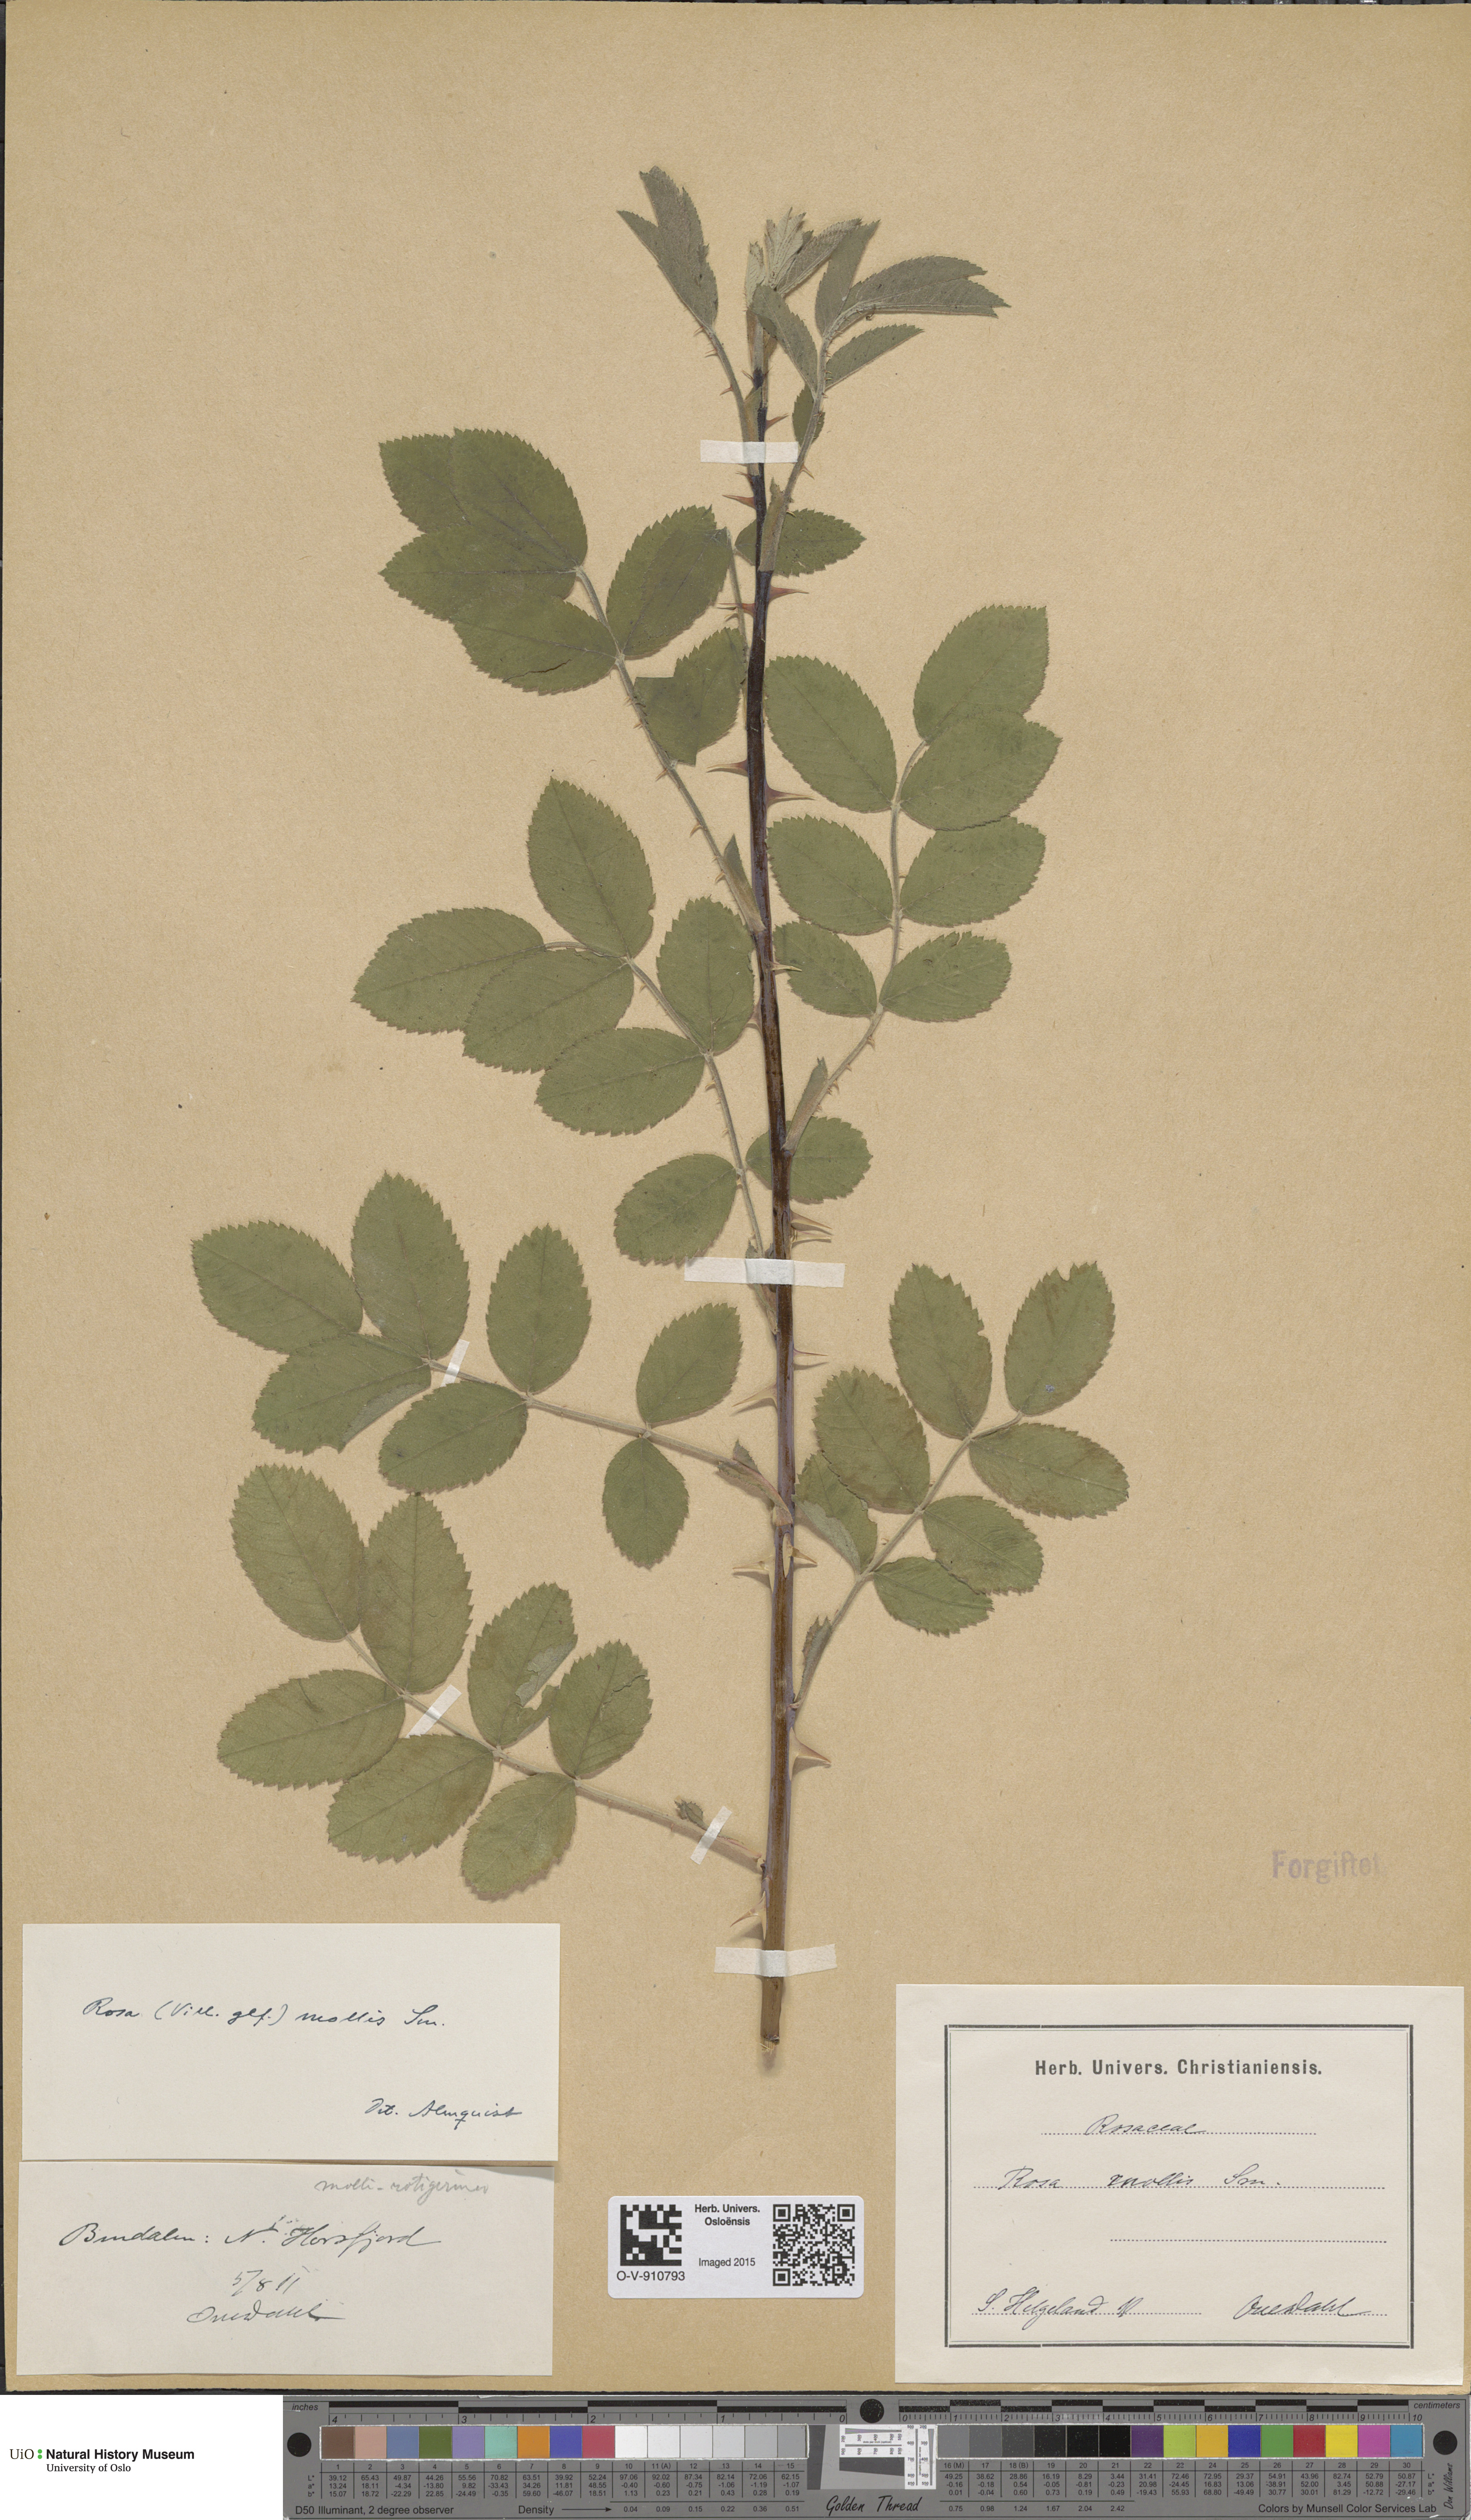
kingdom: Plantae
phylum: Tracheophyta
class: Magnoliopsida
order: Rosales
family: Rosaceae
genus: Rosa
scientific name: Rosa mollis
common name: Rose
